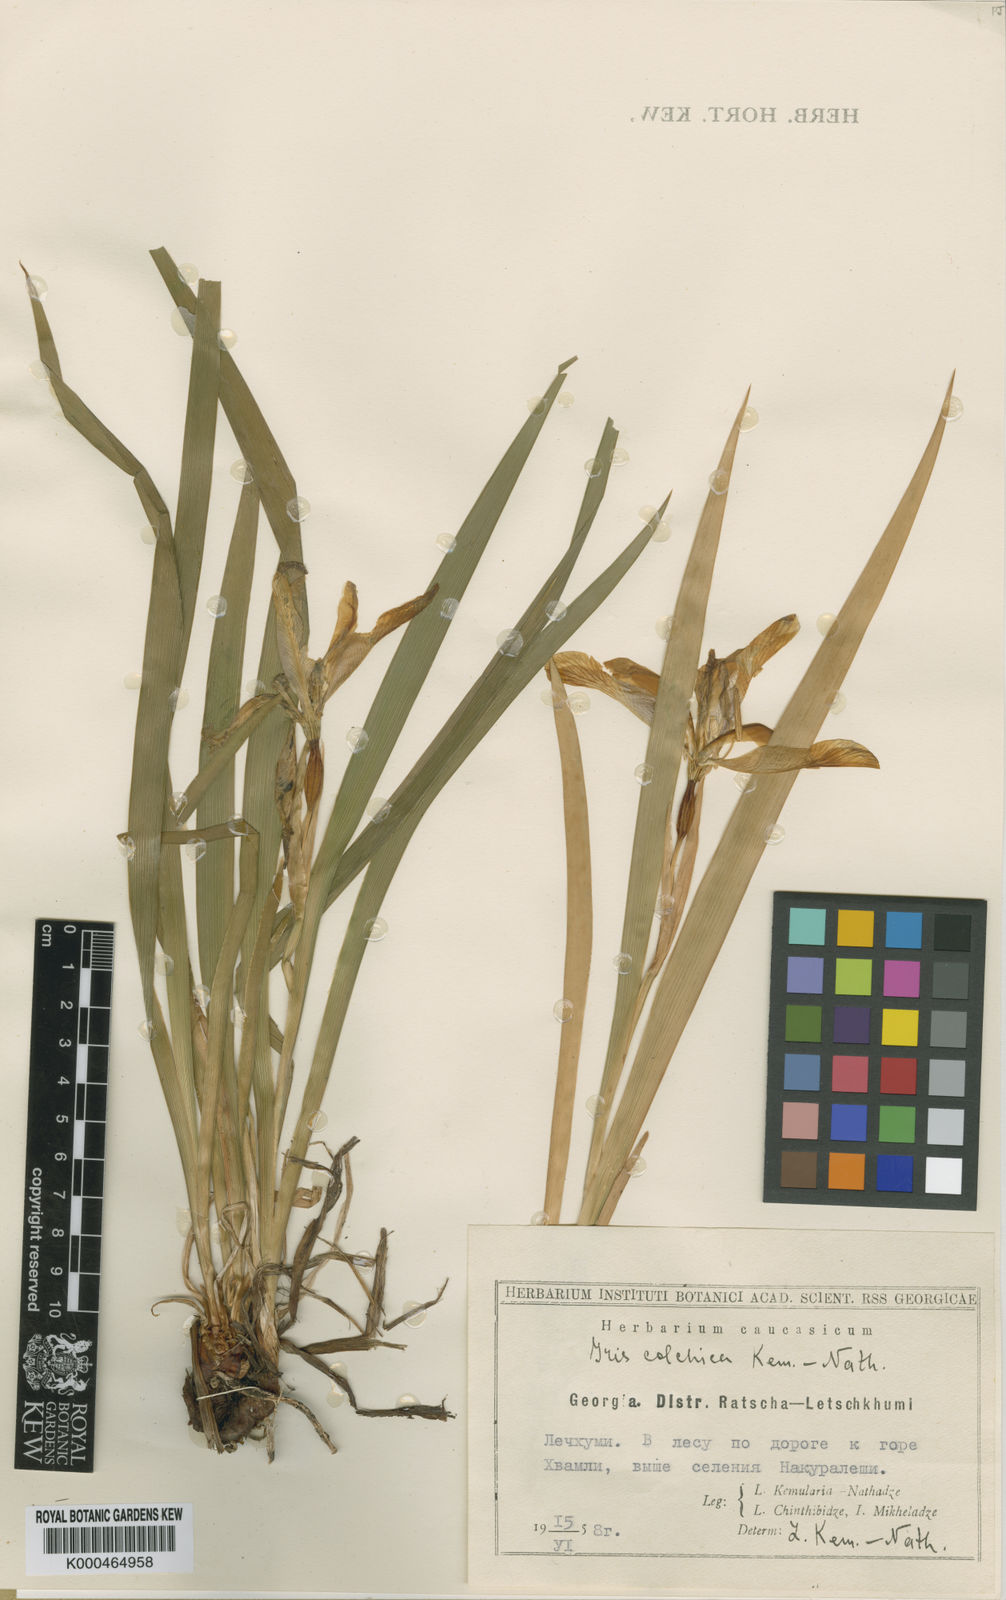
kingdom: Plantae
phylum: Tracheophyta
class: Liliopsida
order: Asparagales
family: Iridaceae
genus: Iris
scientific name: Iris colchica
